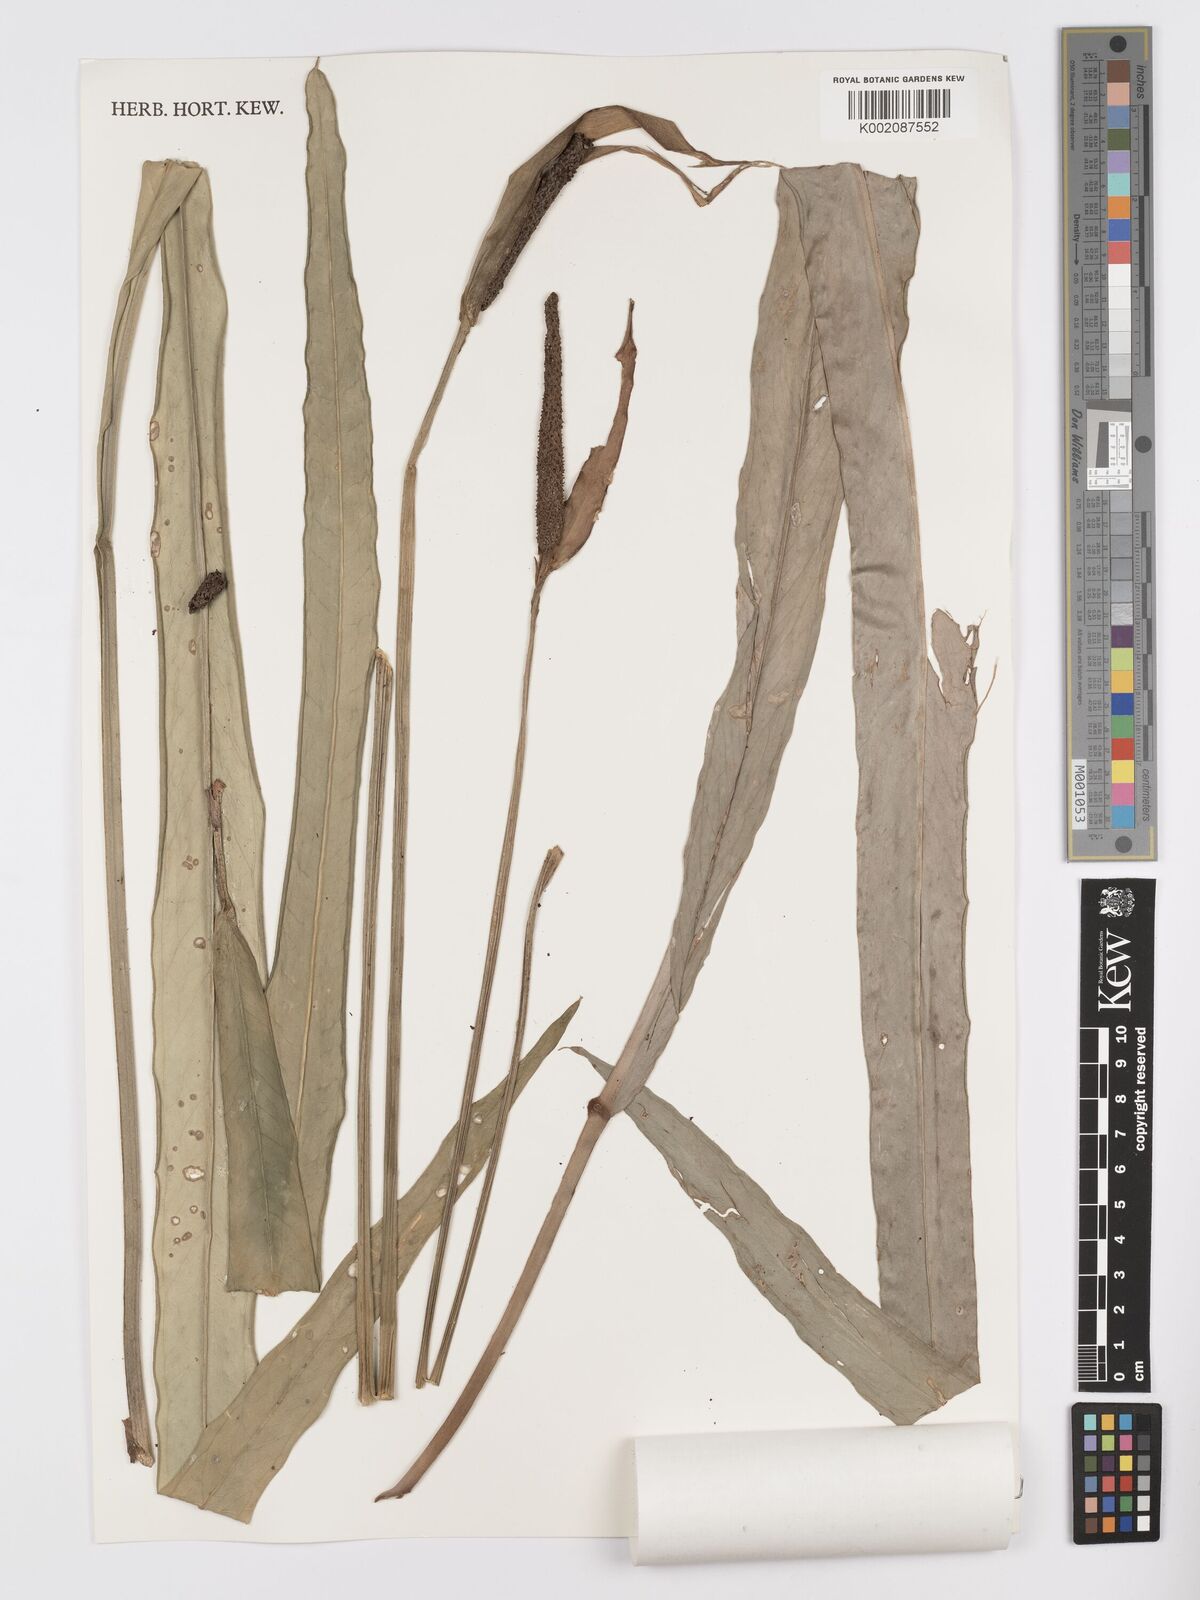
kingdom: Plantae
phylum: Tracheophyta
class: Liliopsida
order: Alismatales
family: Araceae
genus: Anthurium
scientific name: Anthurium galeottii
